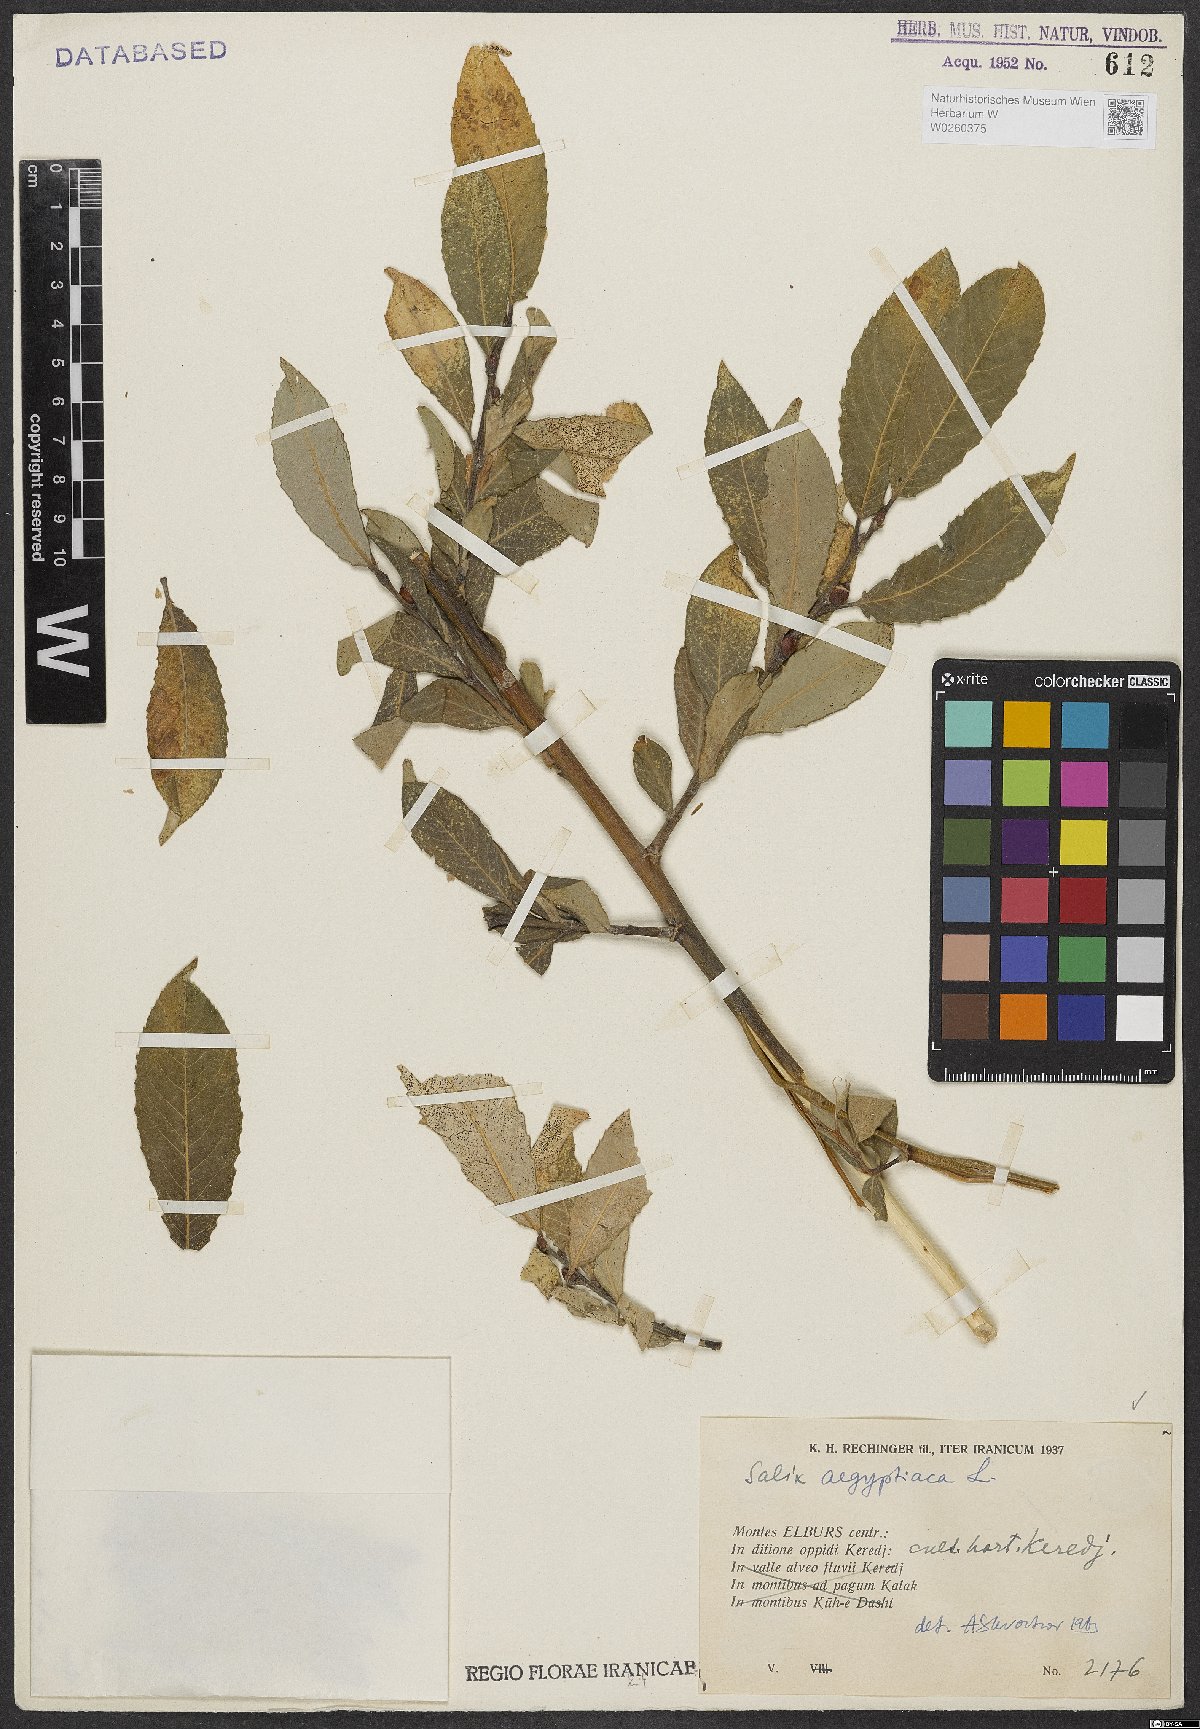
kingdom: Plantae
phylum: Tracheophyta
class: Magnoliopsida
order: Malpighiales
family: Salicaceae
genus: Salix
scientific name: Salix aegyptiaca
